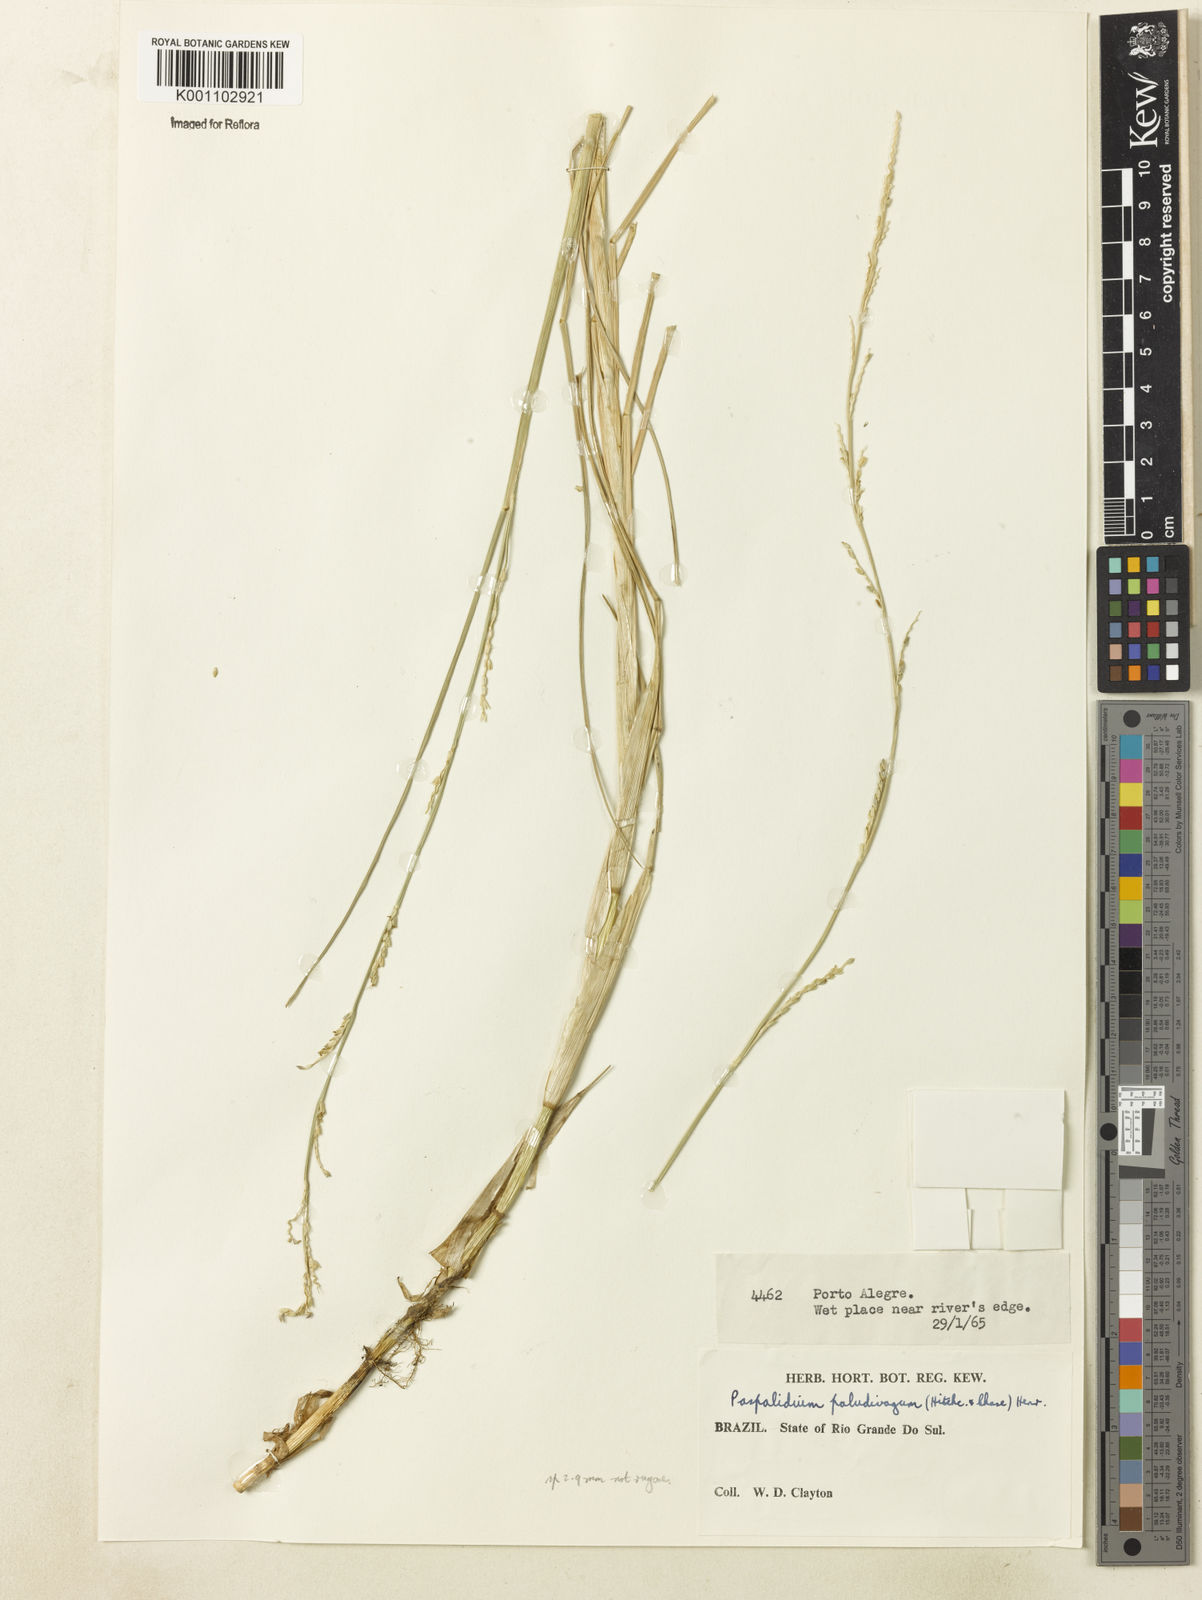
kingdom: Plantae
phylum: Tracheophyta
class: Liliopsida
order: Poales
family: Poaceae
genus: Setaria
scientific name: Setaria geminata
